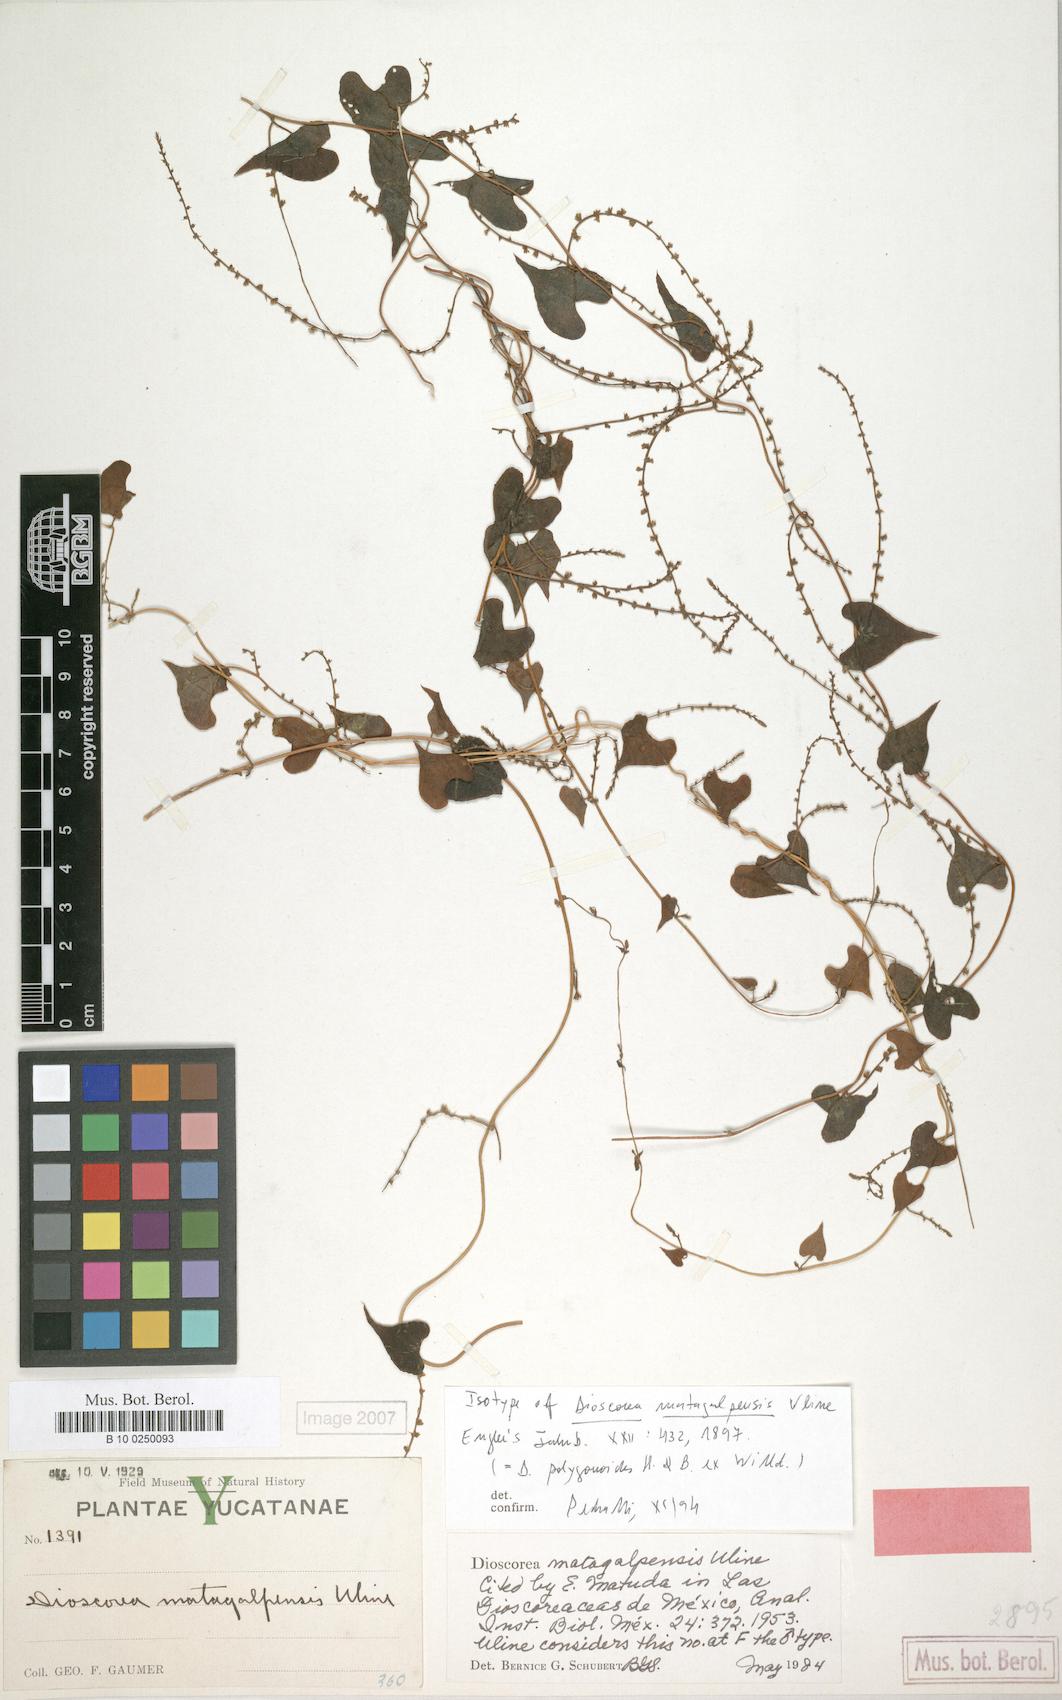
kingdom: Plantae
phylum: Tracheophyta
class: Liliopsida
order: Dioscoreales
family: Dioscoreaceae
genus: Dioscorea
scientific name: Dioscorea matagalpensis
